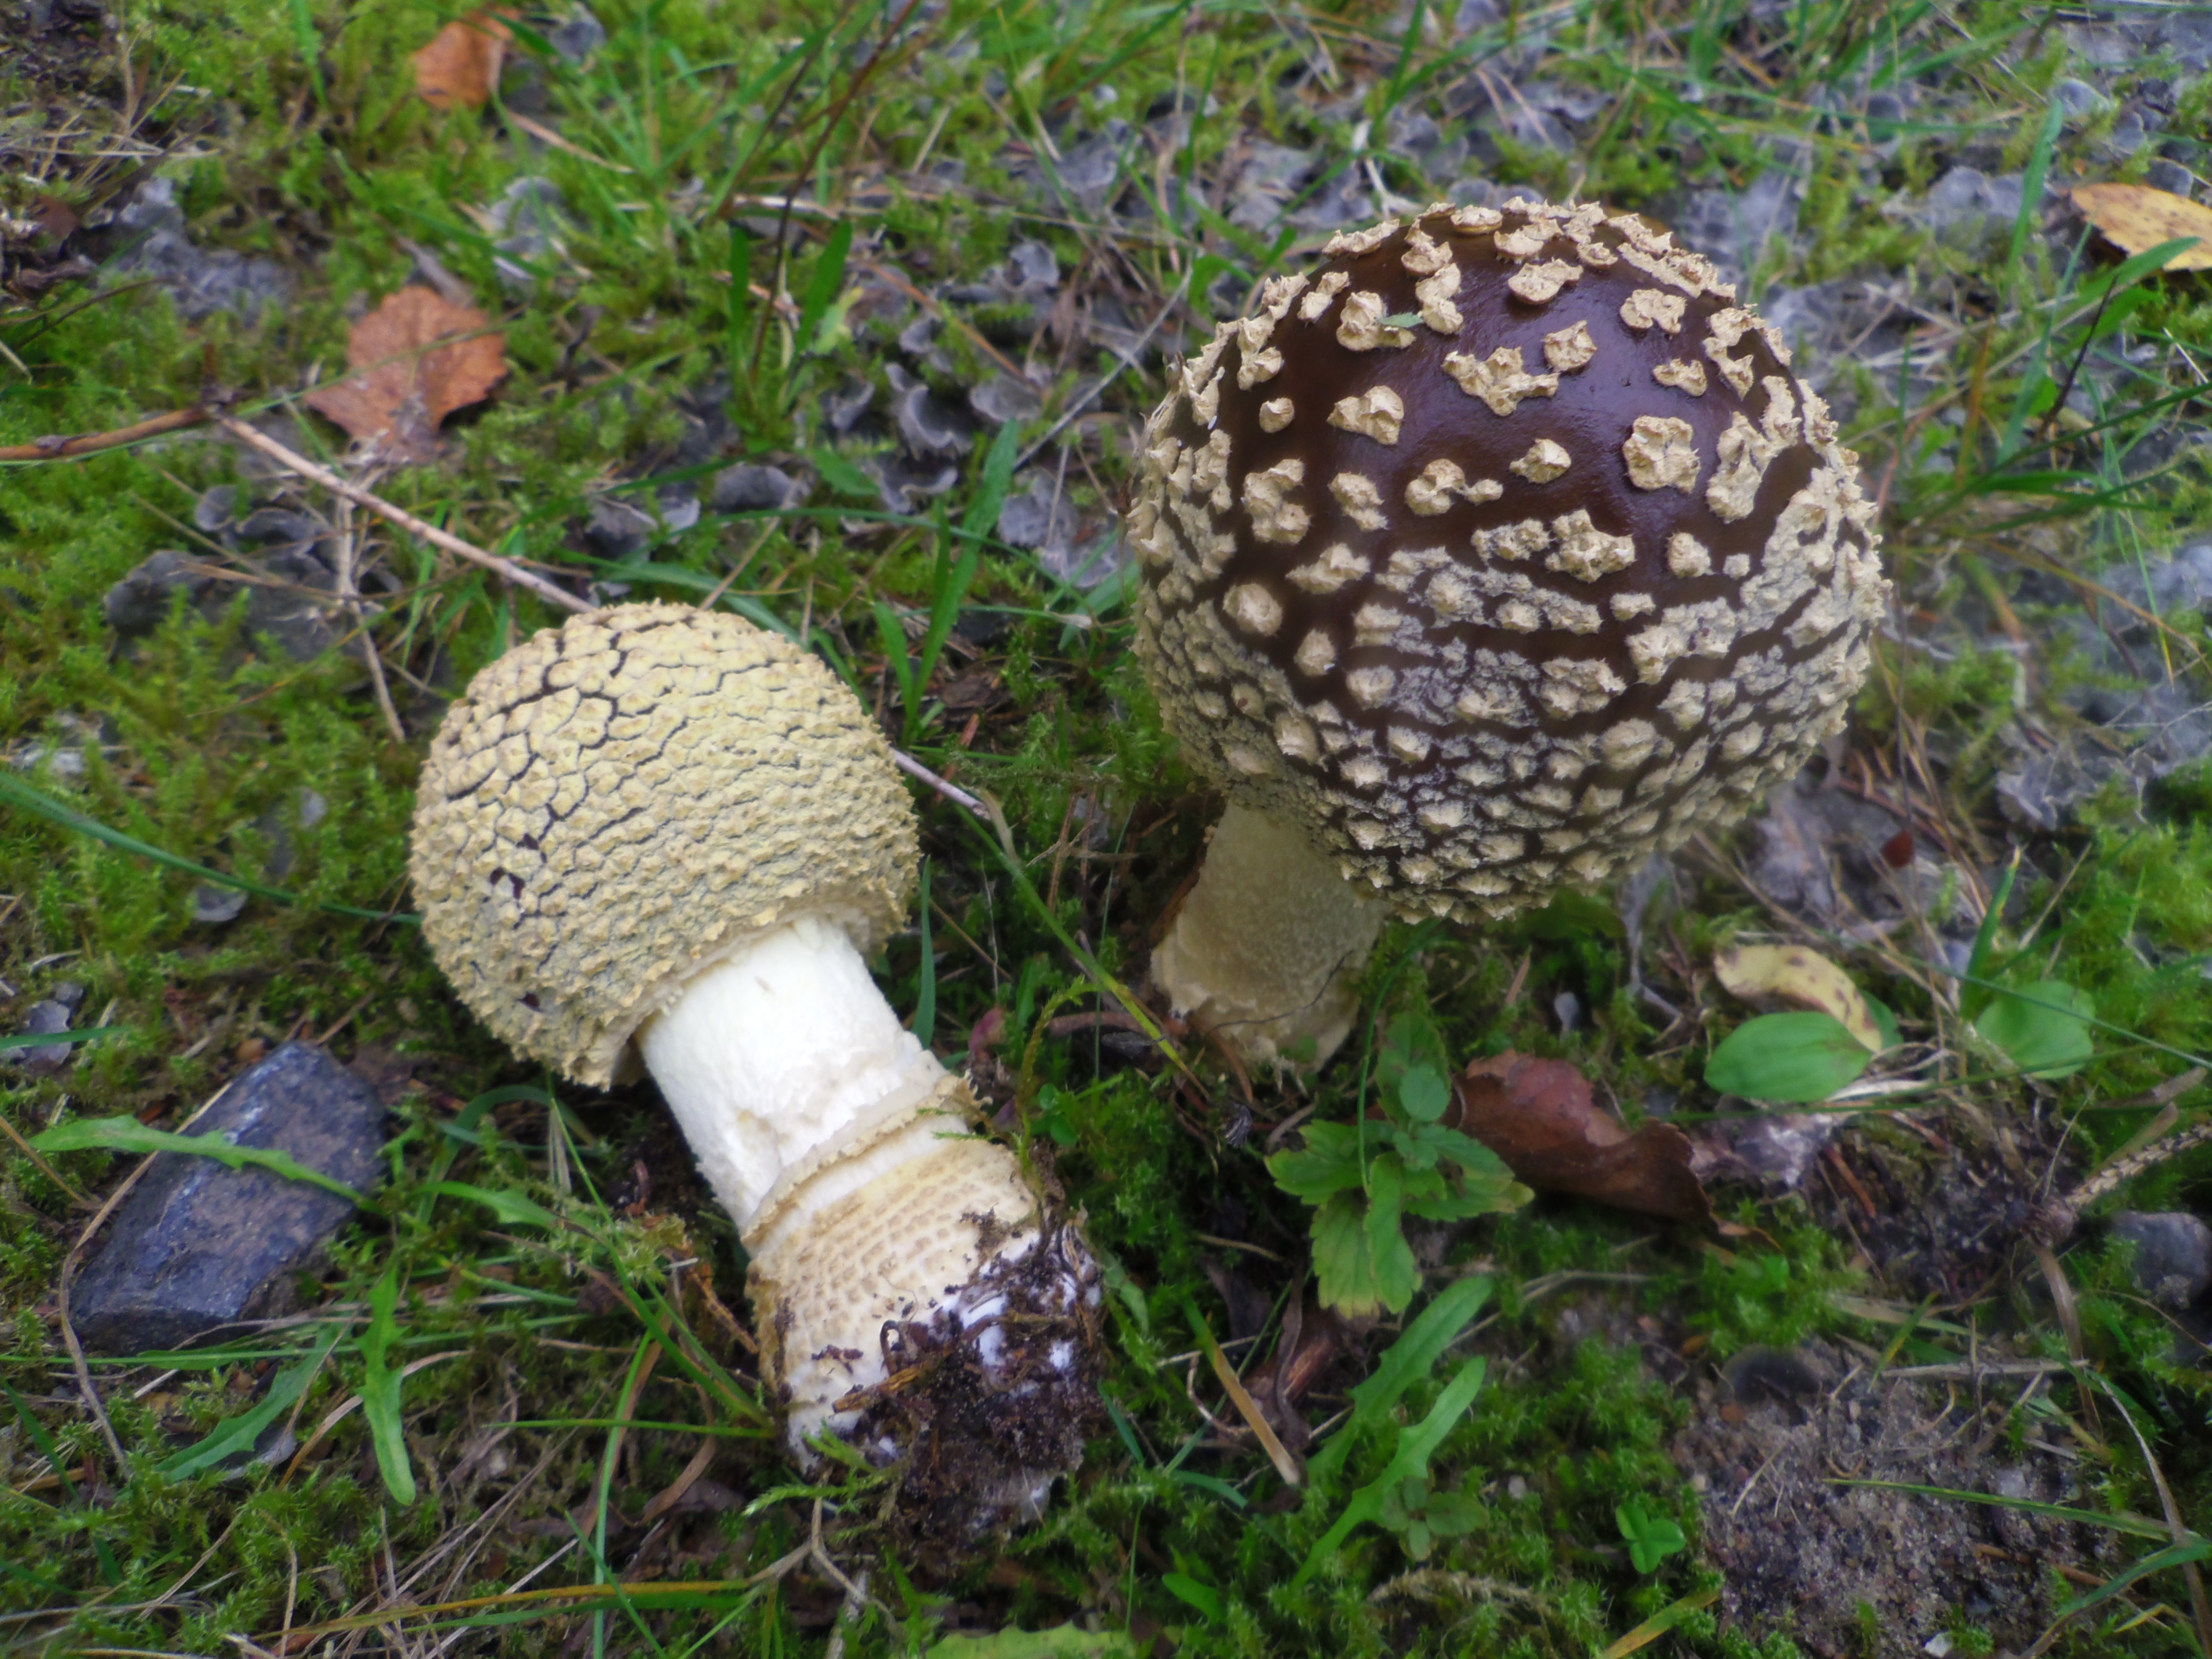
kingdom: Fungi
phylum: Basidiomycota
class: Agaricomycetes
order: Agaricales
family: Amanitaceae
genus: Amanita
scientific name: Amanita regalis
